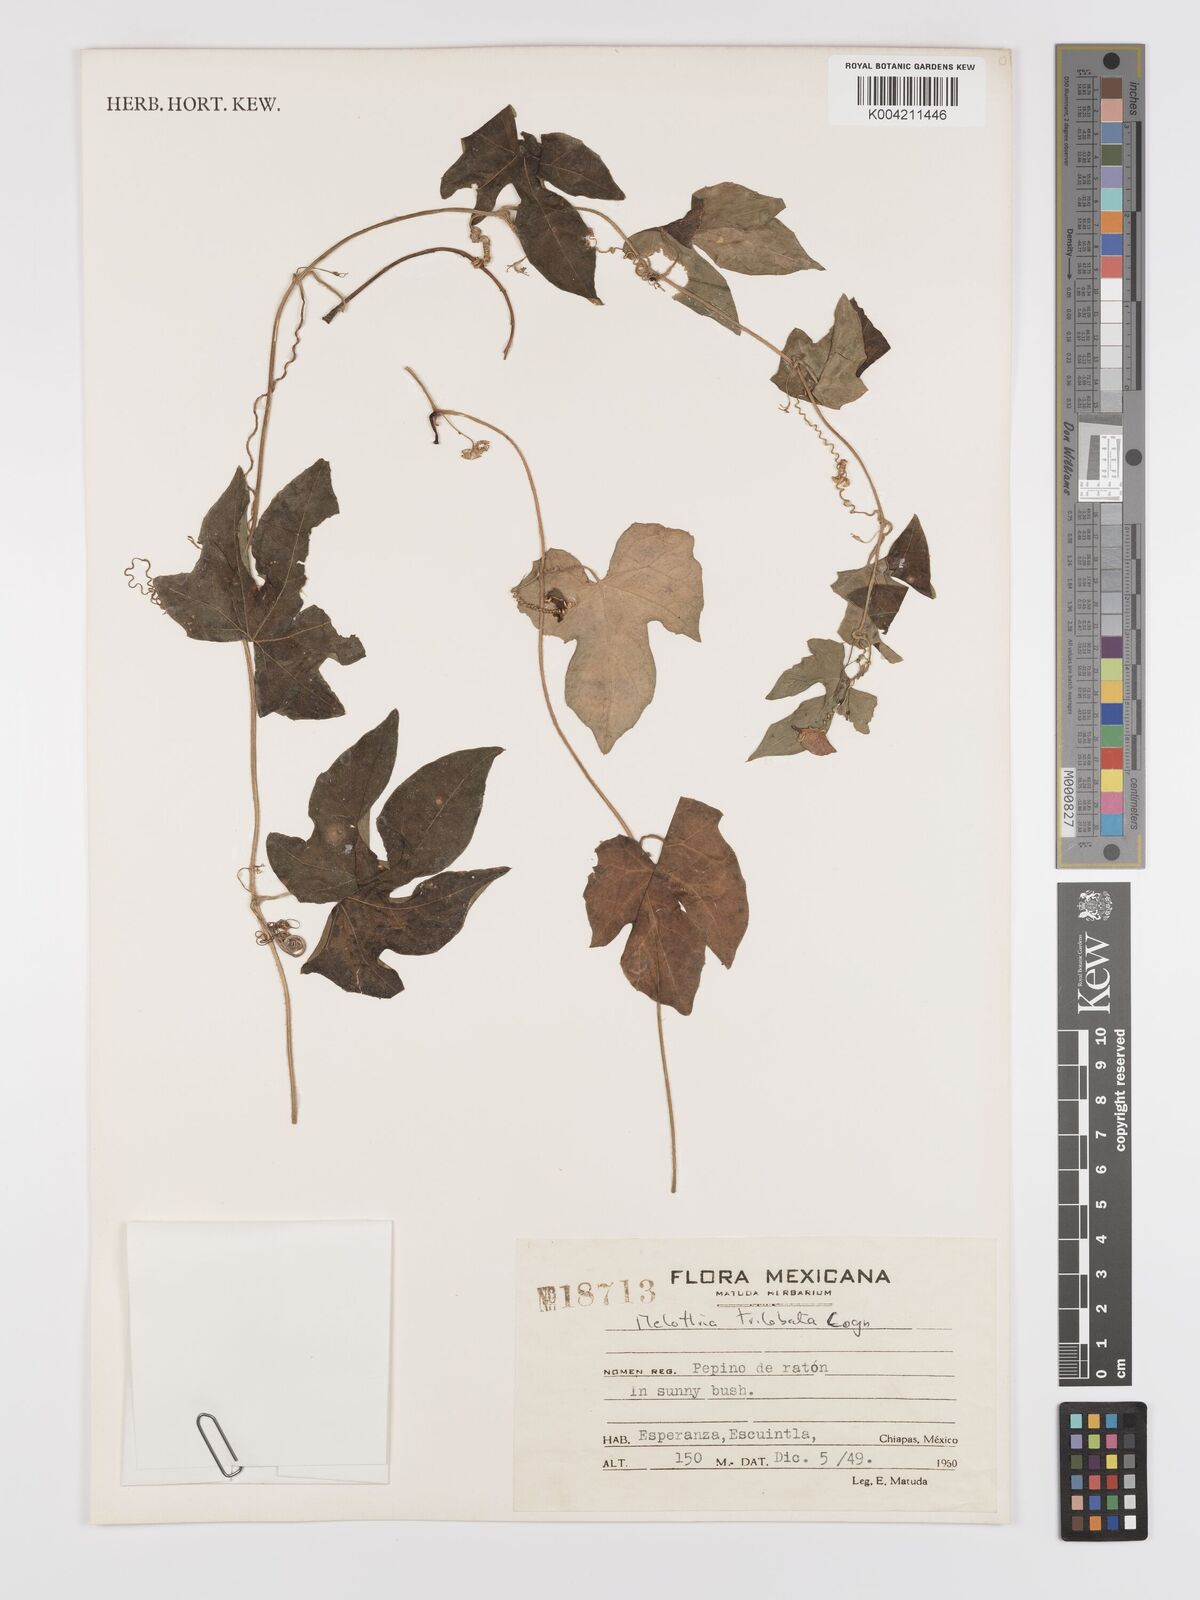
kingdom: Plantae
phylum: Tracheophyta
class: Magnoliopsida
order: Cucurbitales
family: Cucurbitaceae
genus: Melothria
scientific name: Melothria trilobata
